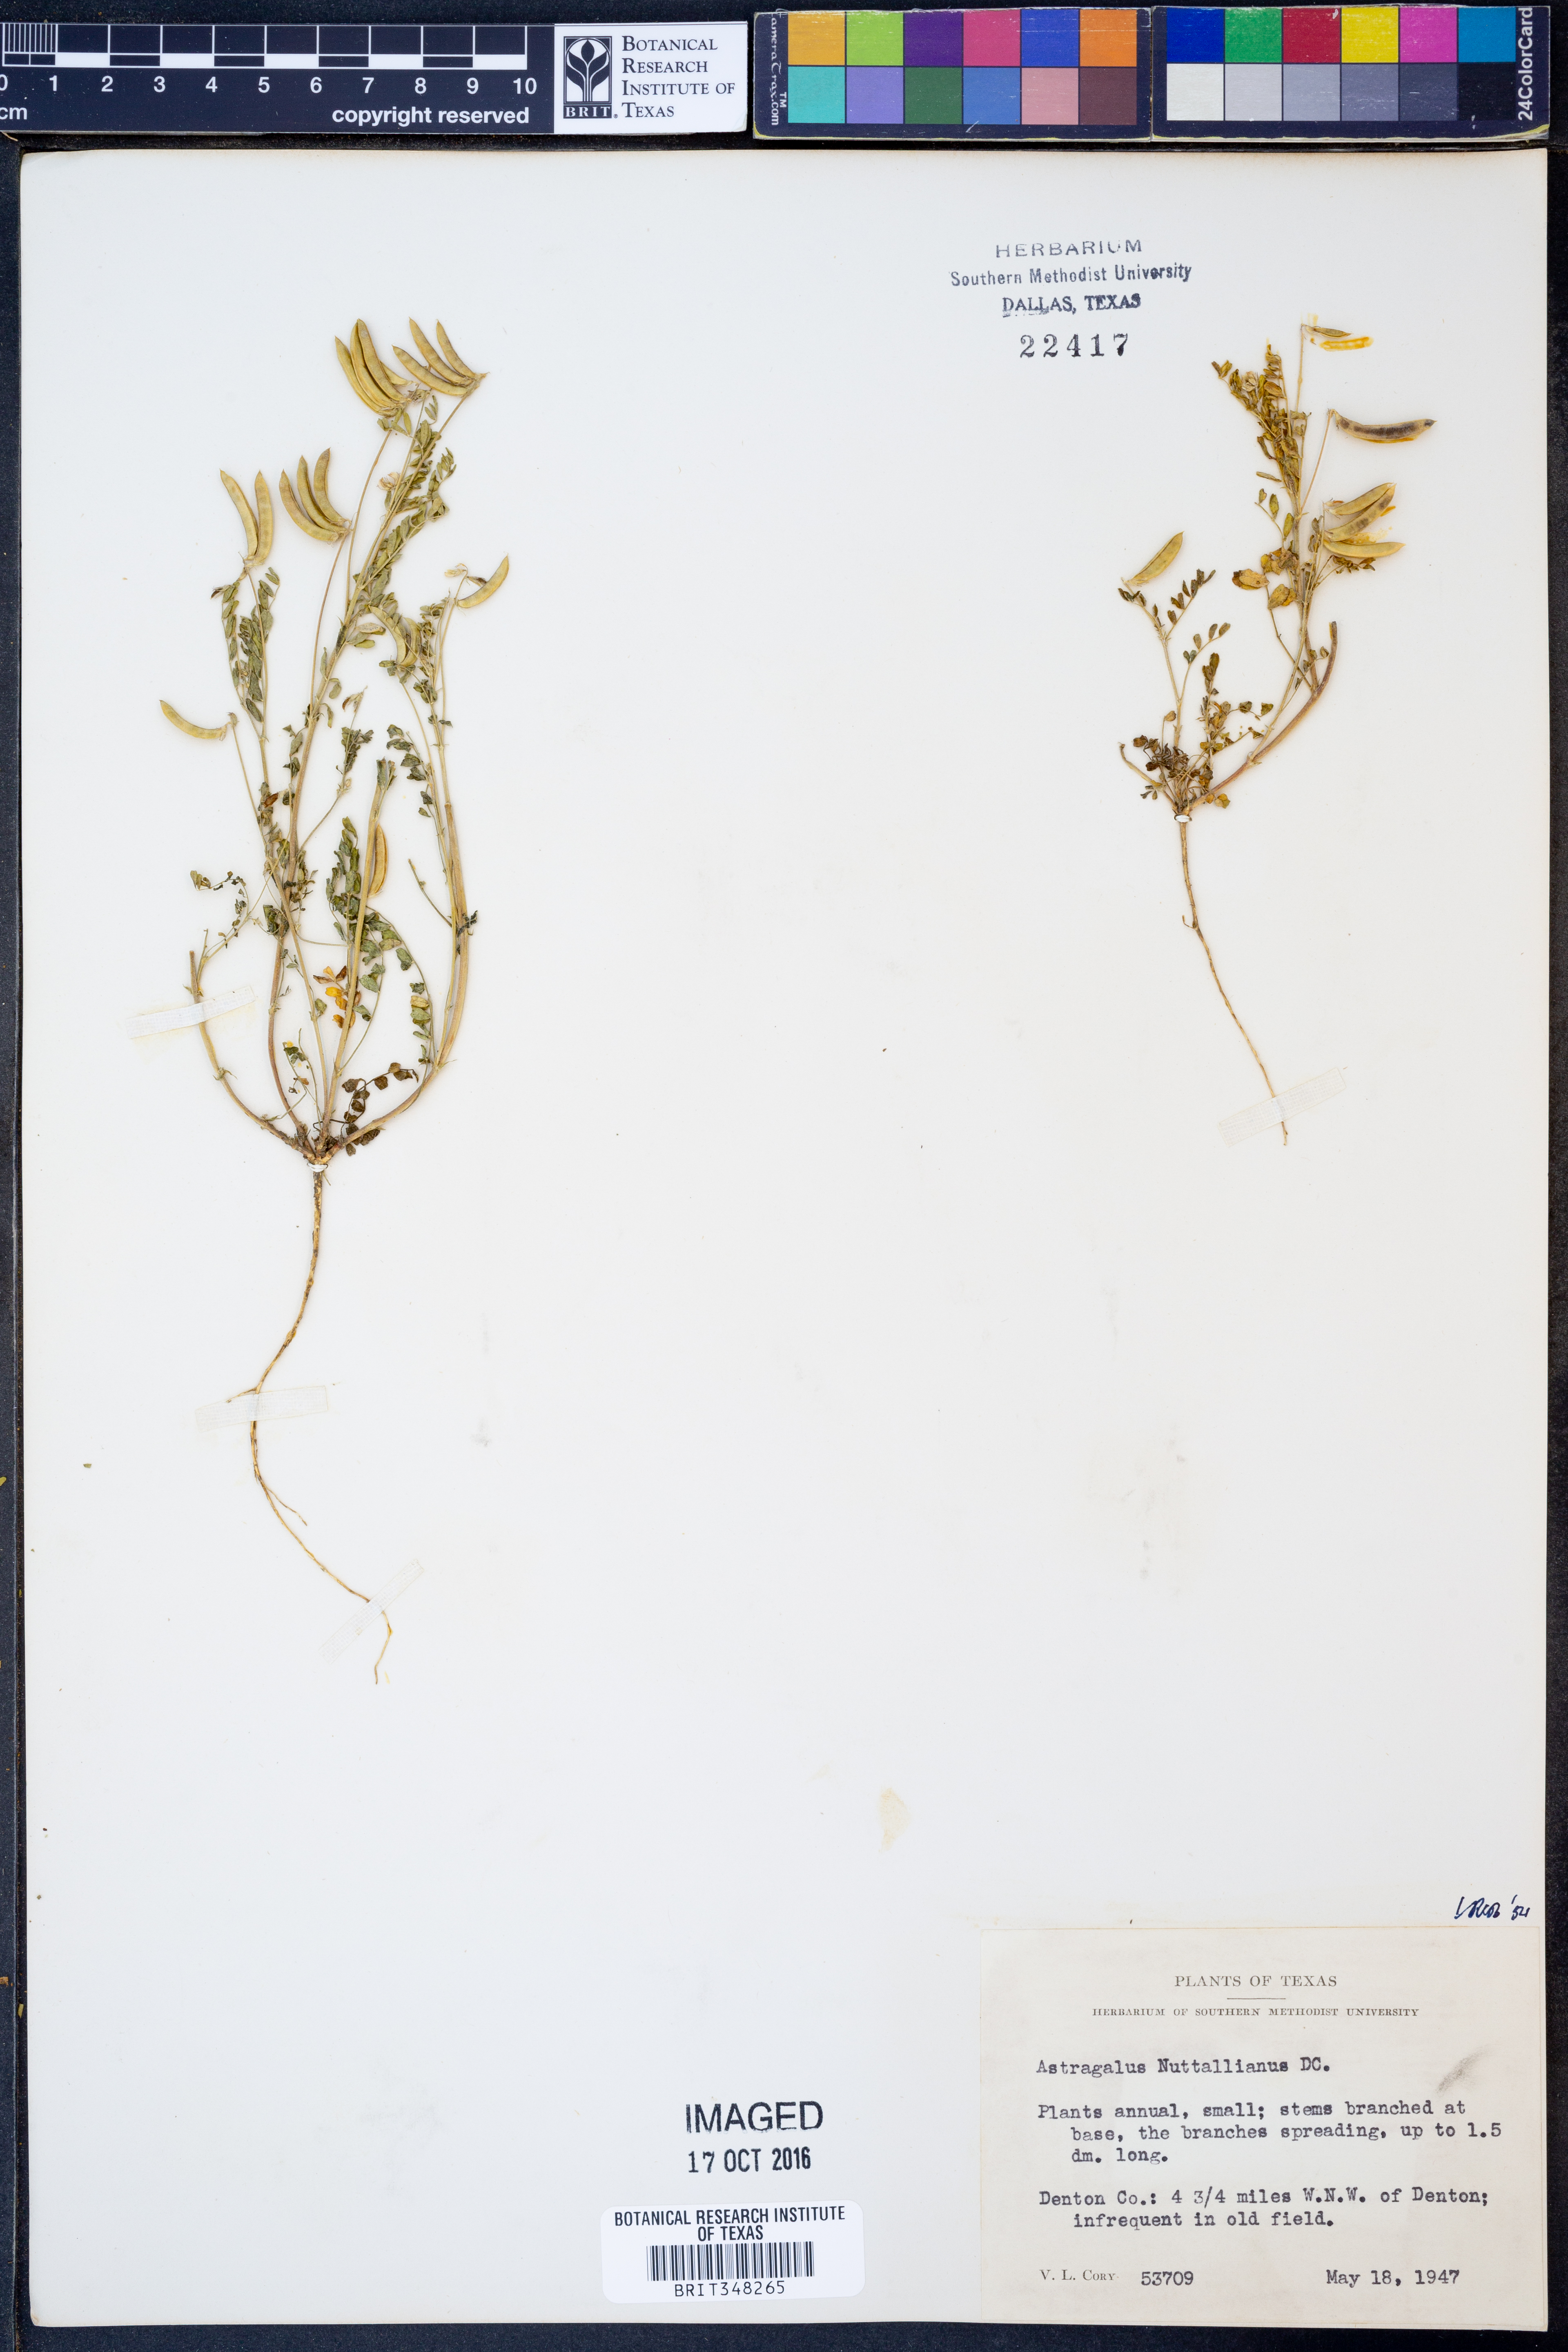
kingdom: Plantae
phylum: Tracheophyta
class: Magnoliopsida
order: Fabales
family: Fabaceae
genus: Astragalus
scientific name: Astragalus nuttallianus
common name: Smallflowered milkvetch
